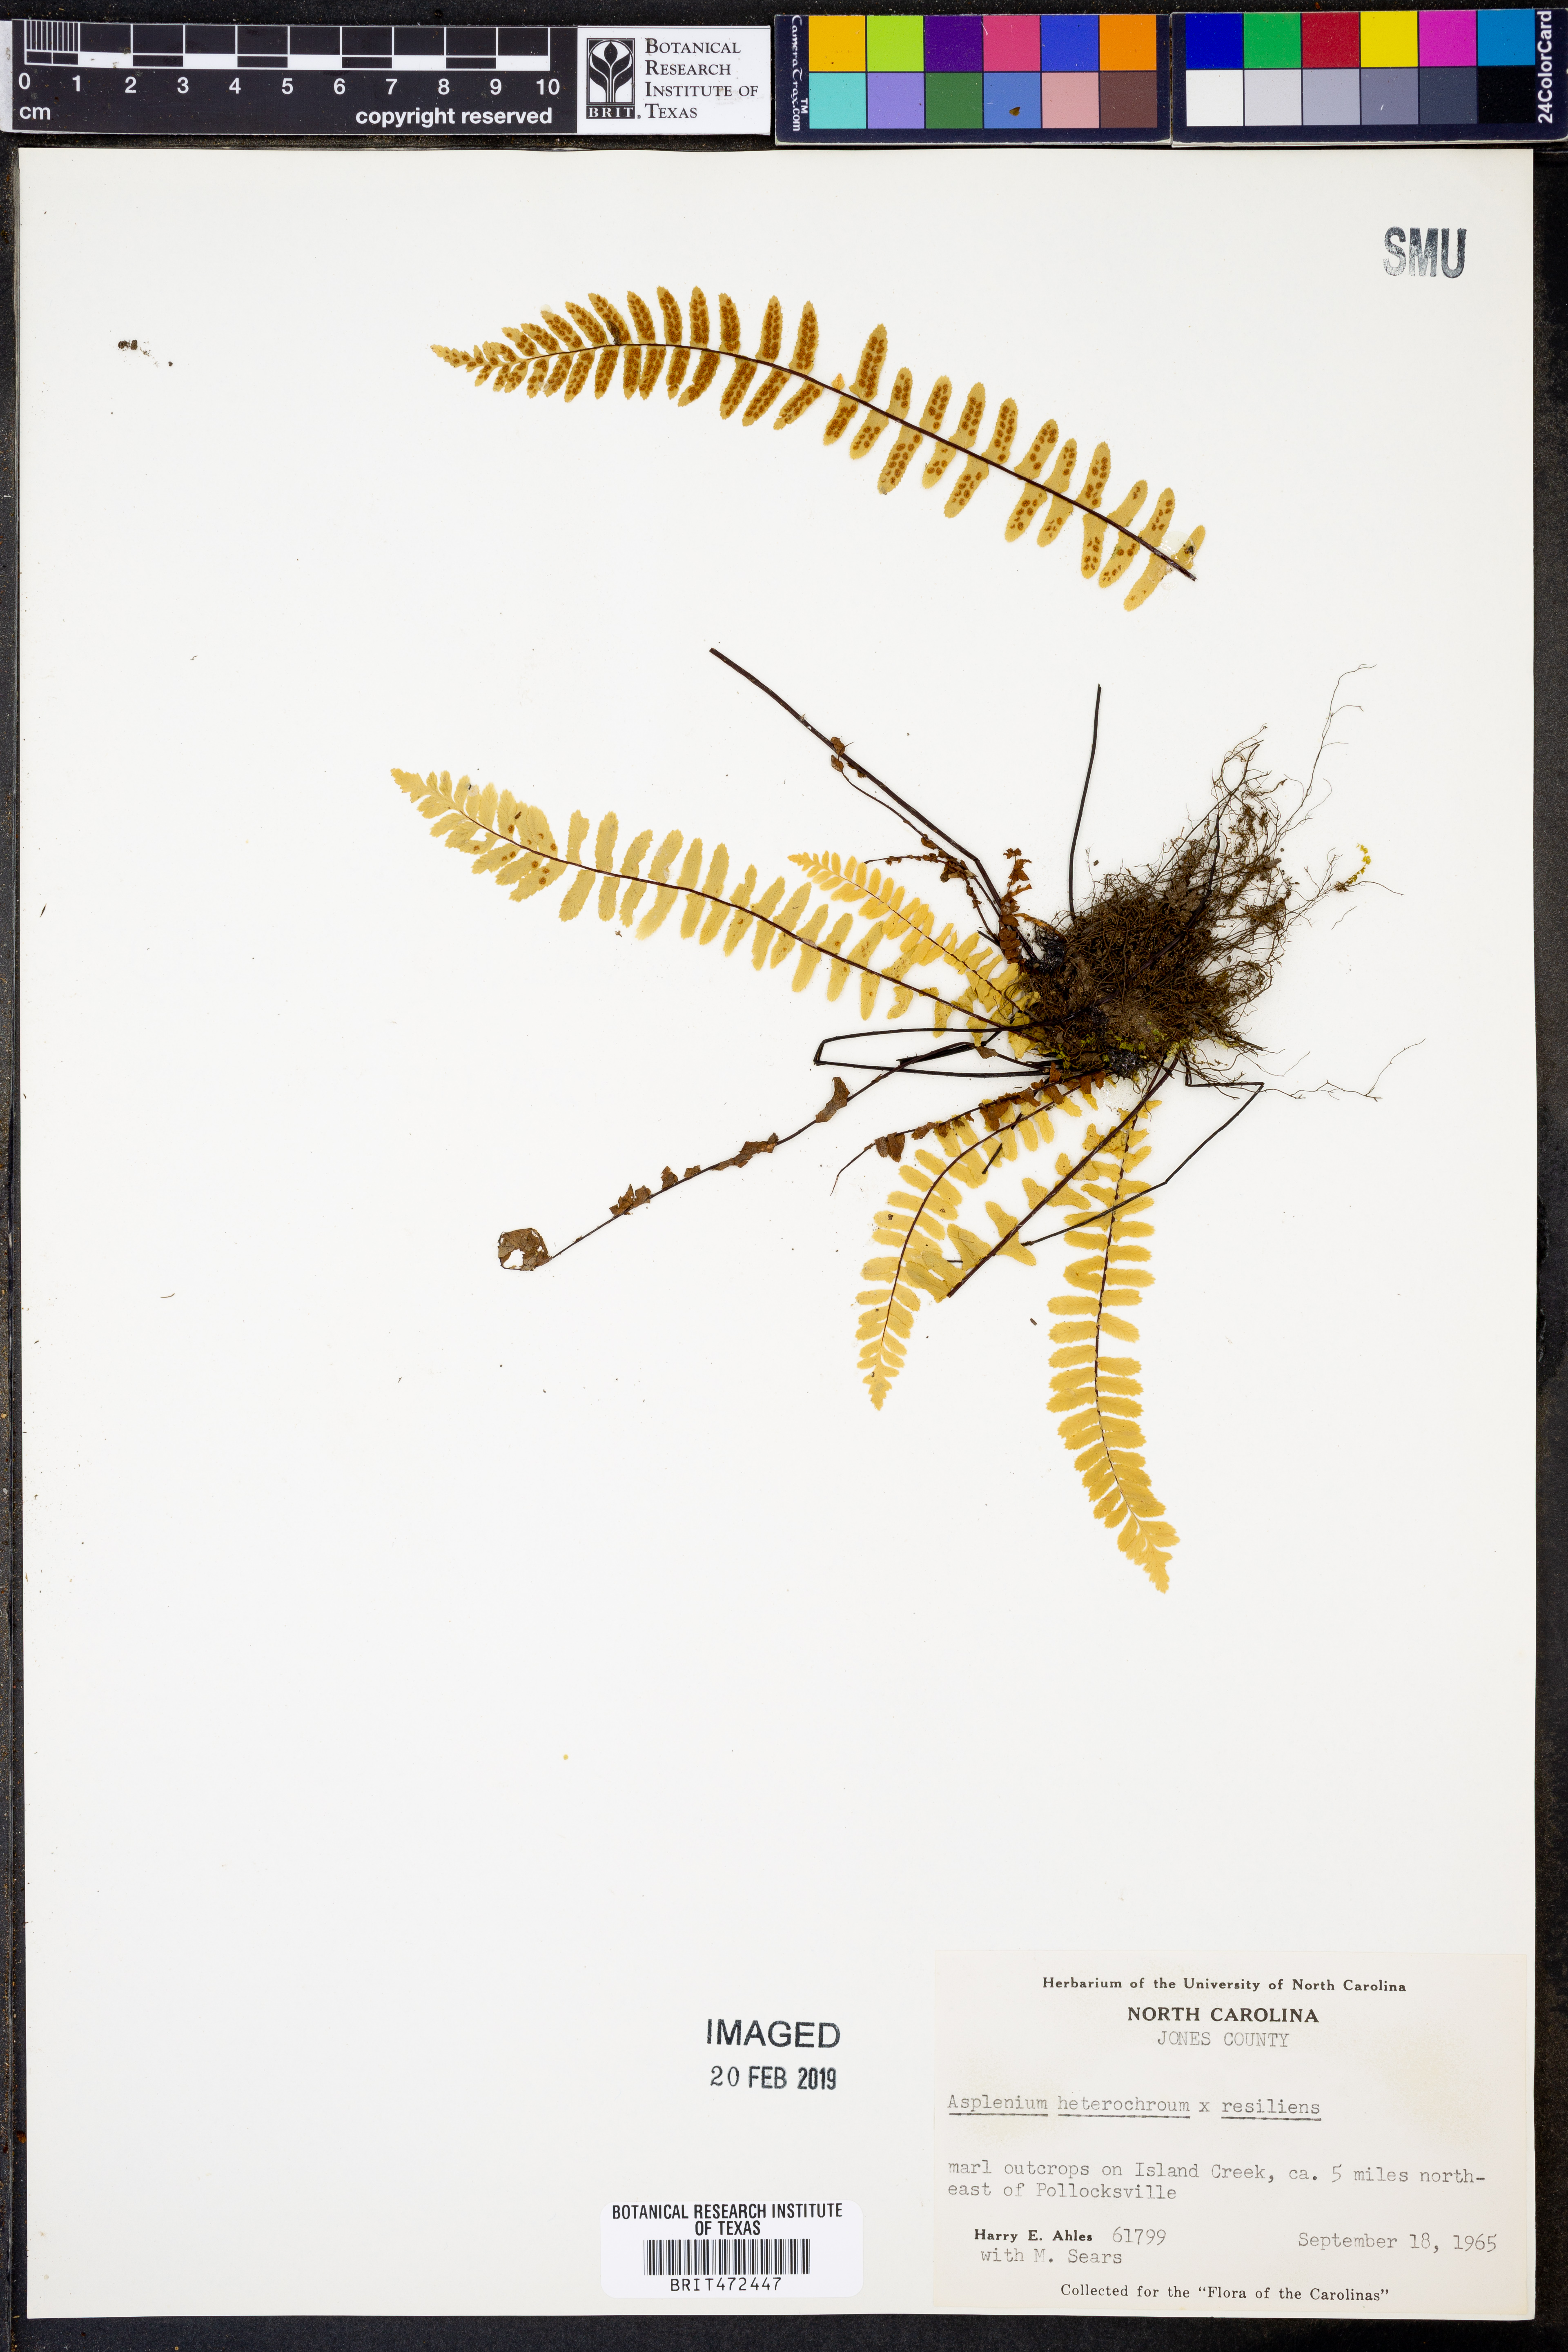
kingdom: Plantae
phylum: Tracheophyta
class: Polypodiopsida
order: Polypodiales
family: Aspleniaceae
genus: Asplenium
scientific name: Asplenium heterochroum
